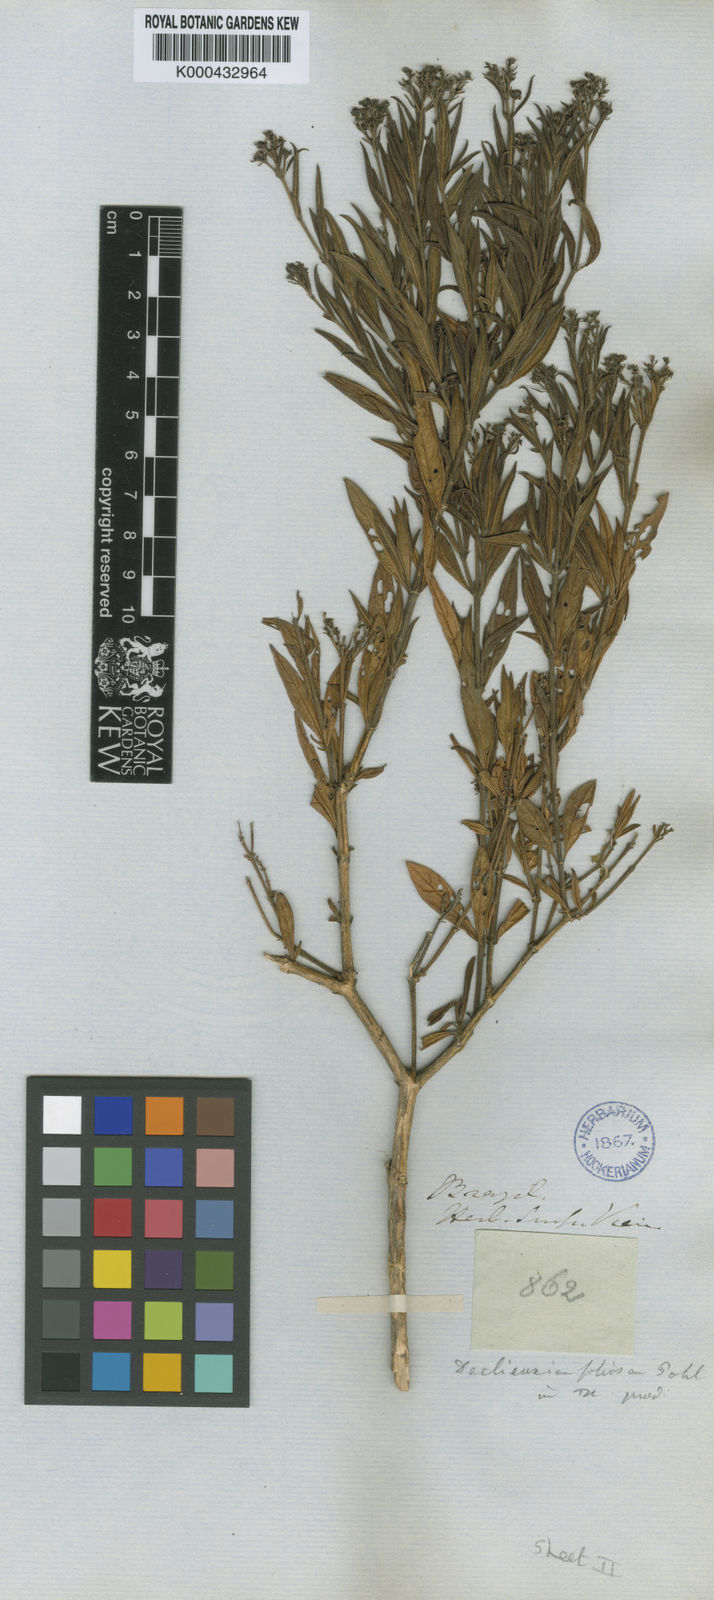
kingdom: Plantae
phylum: Tracheophyta
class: Magnoliopsida
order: Gentianales
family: Rubiaceae
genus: Declieuxia
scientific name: Declieuxia fruticosa
